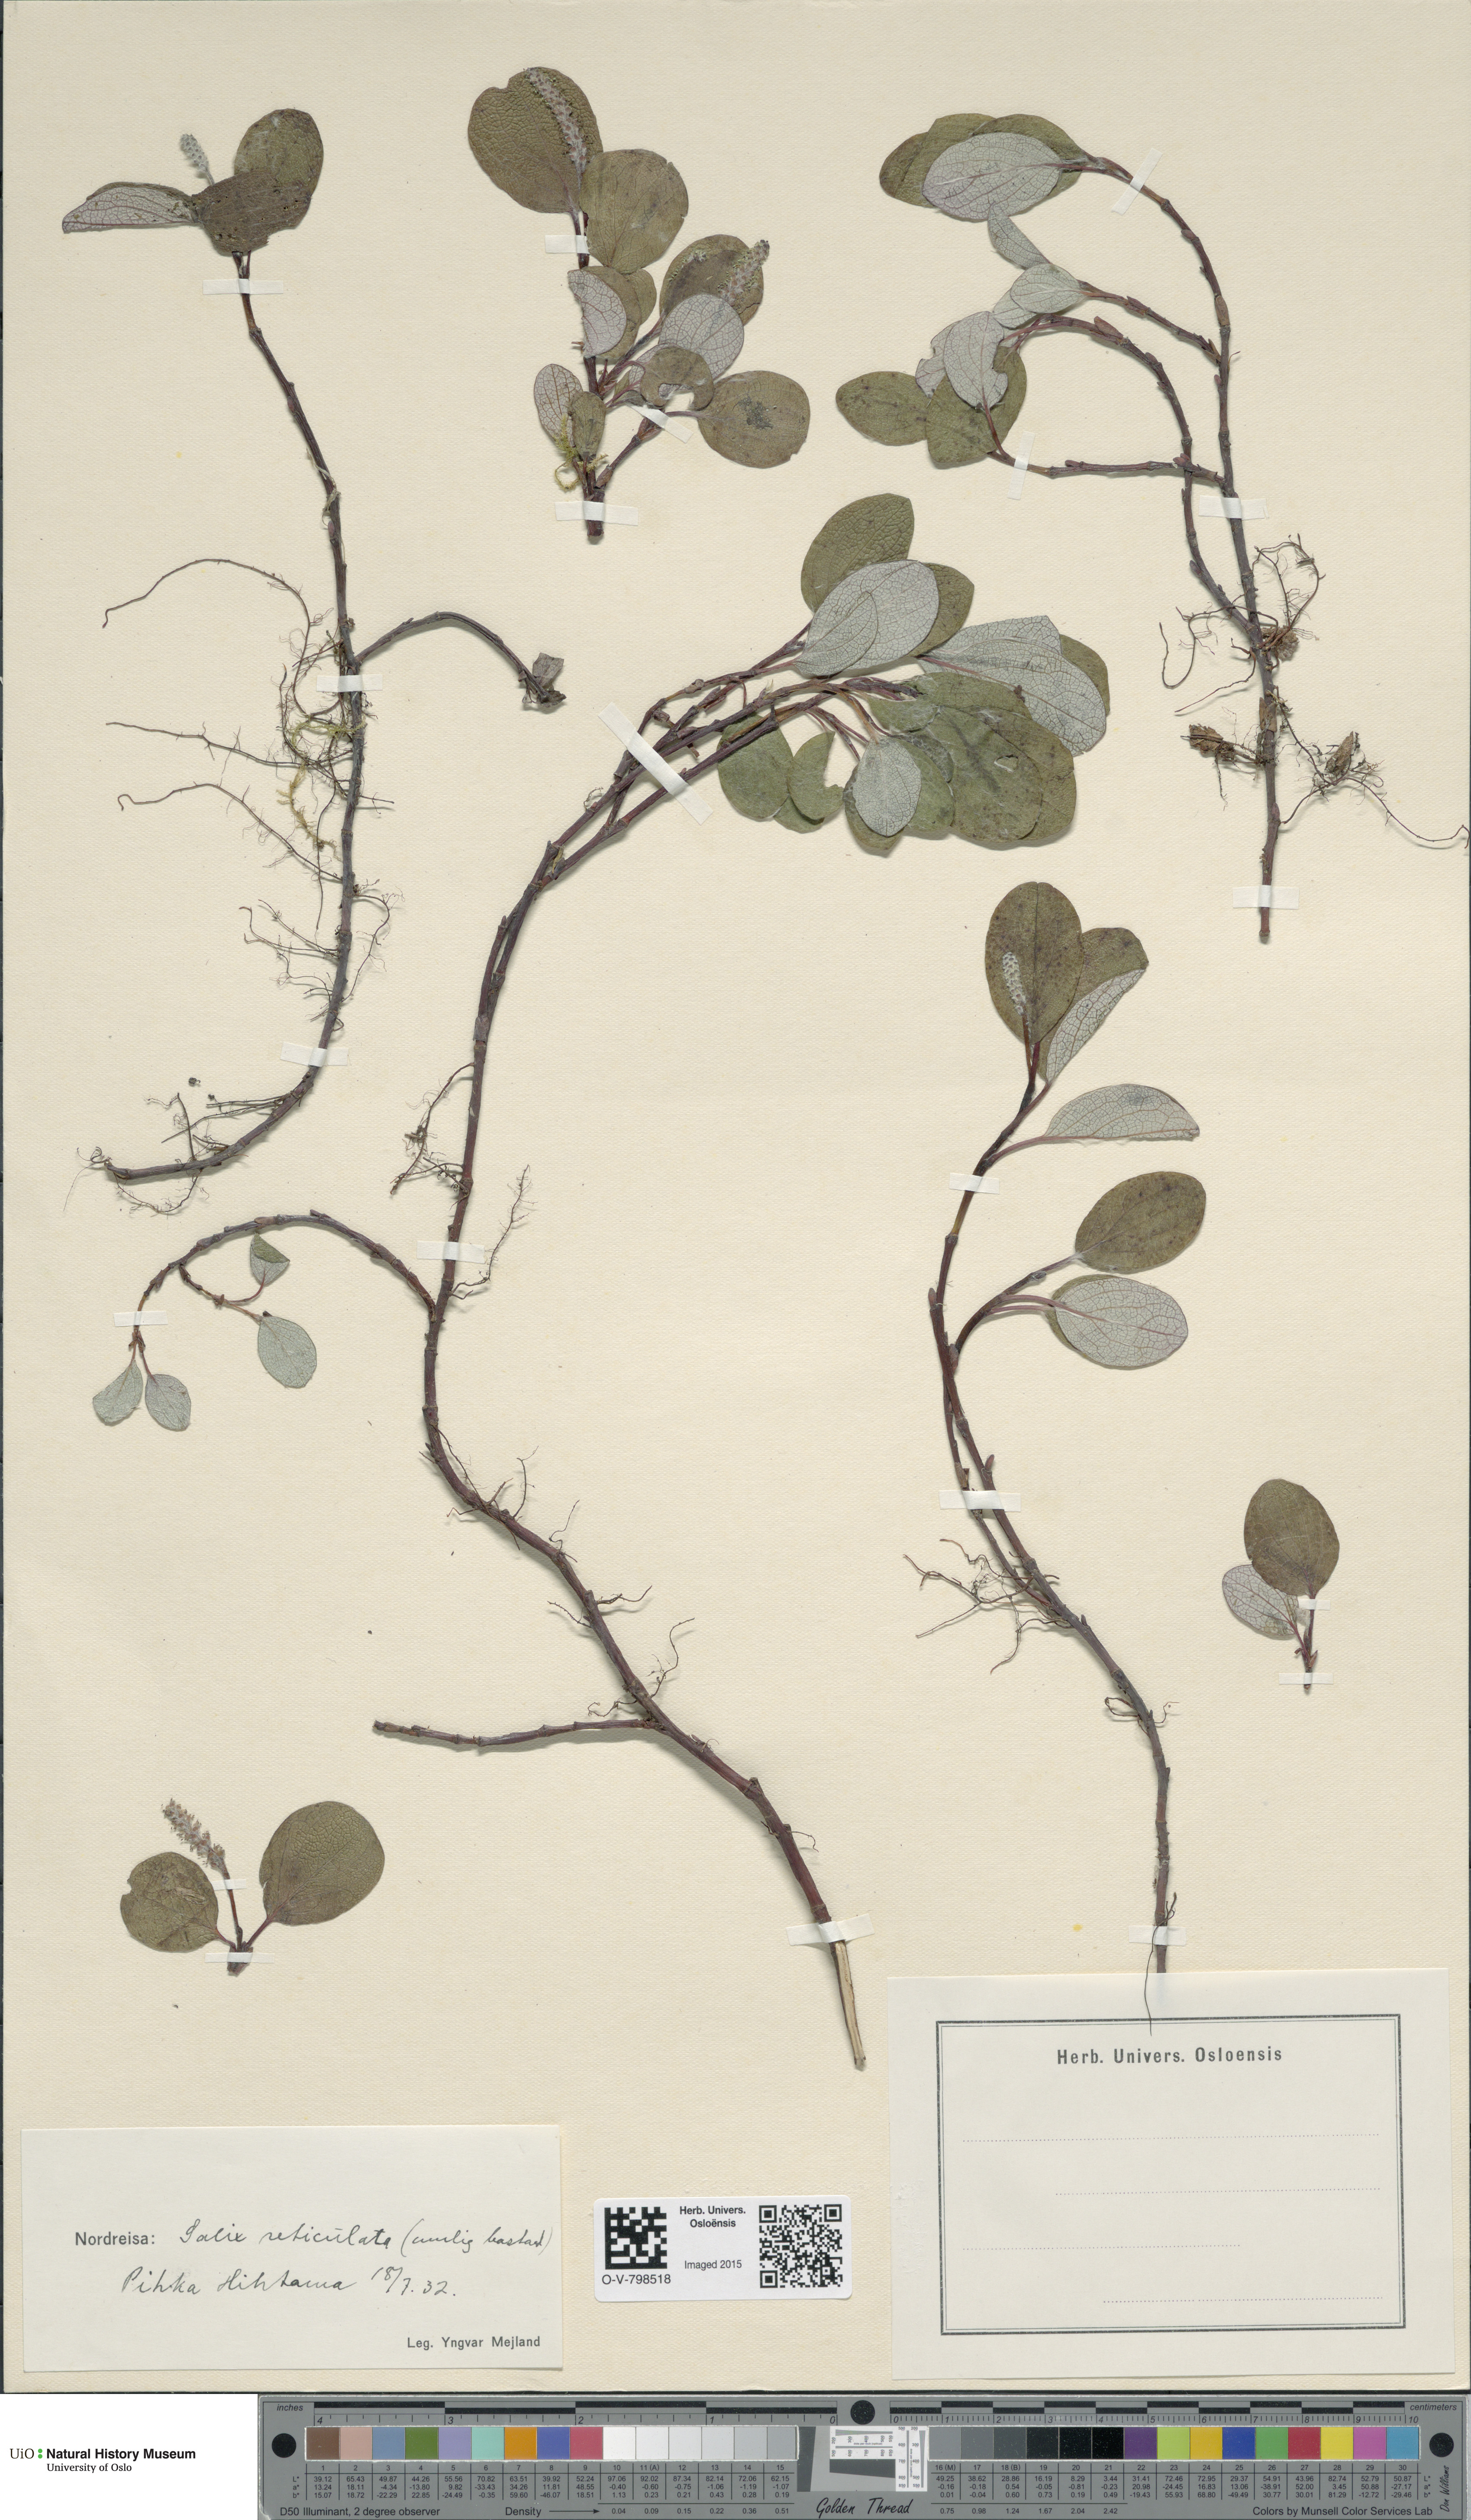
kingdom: Plantae
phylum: Tracheophyta
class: Magnoliopsida
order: Malpighiales
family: Salicaceae
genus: Salix
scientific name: Salix reticulata
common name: Net-leaved willow
